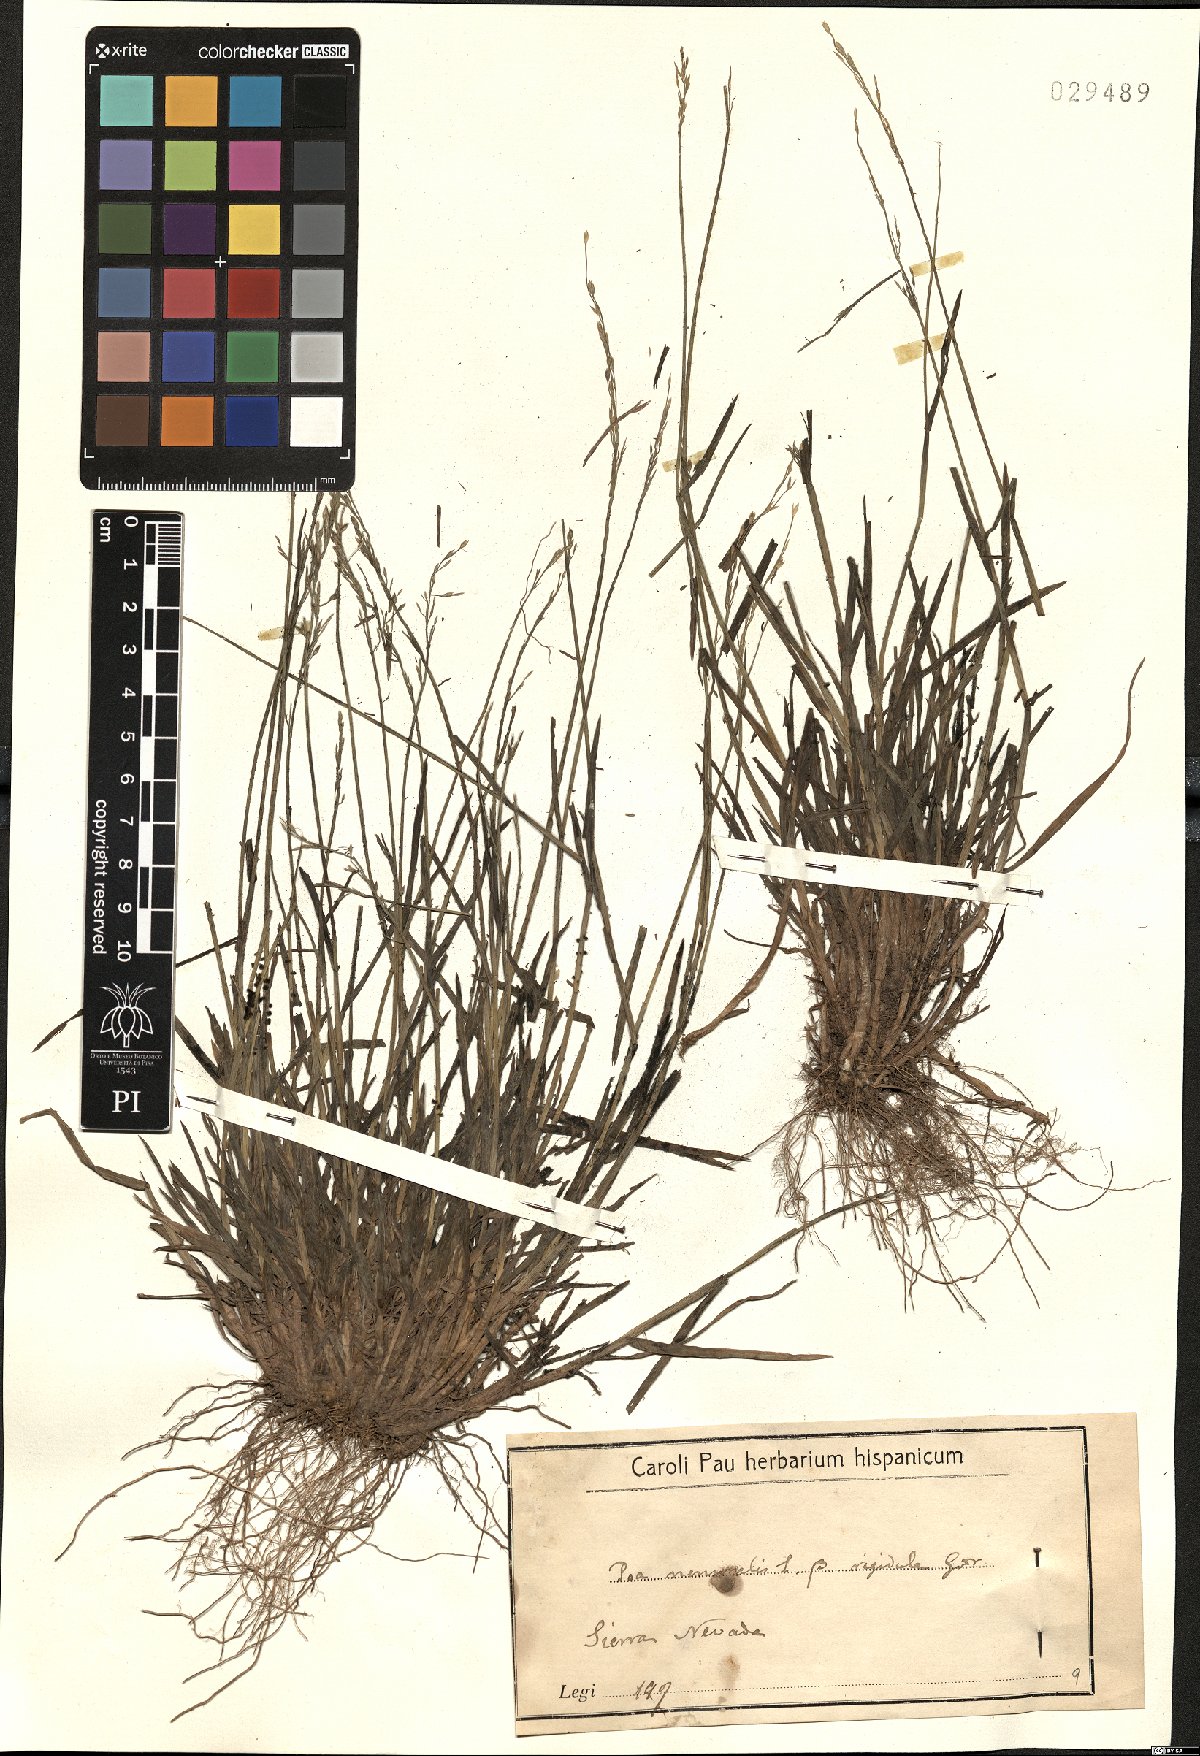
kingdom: Plantae
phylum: Tracheophyta
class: Liliopsida
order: Poales
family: Poaceae
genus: Poa
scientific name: Poa nemoralis
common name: Wood bluegrass
